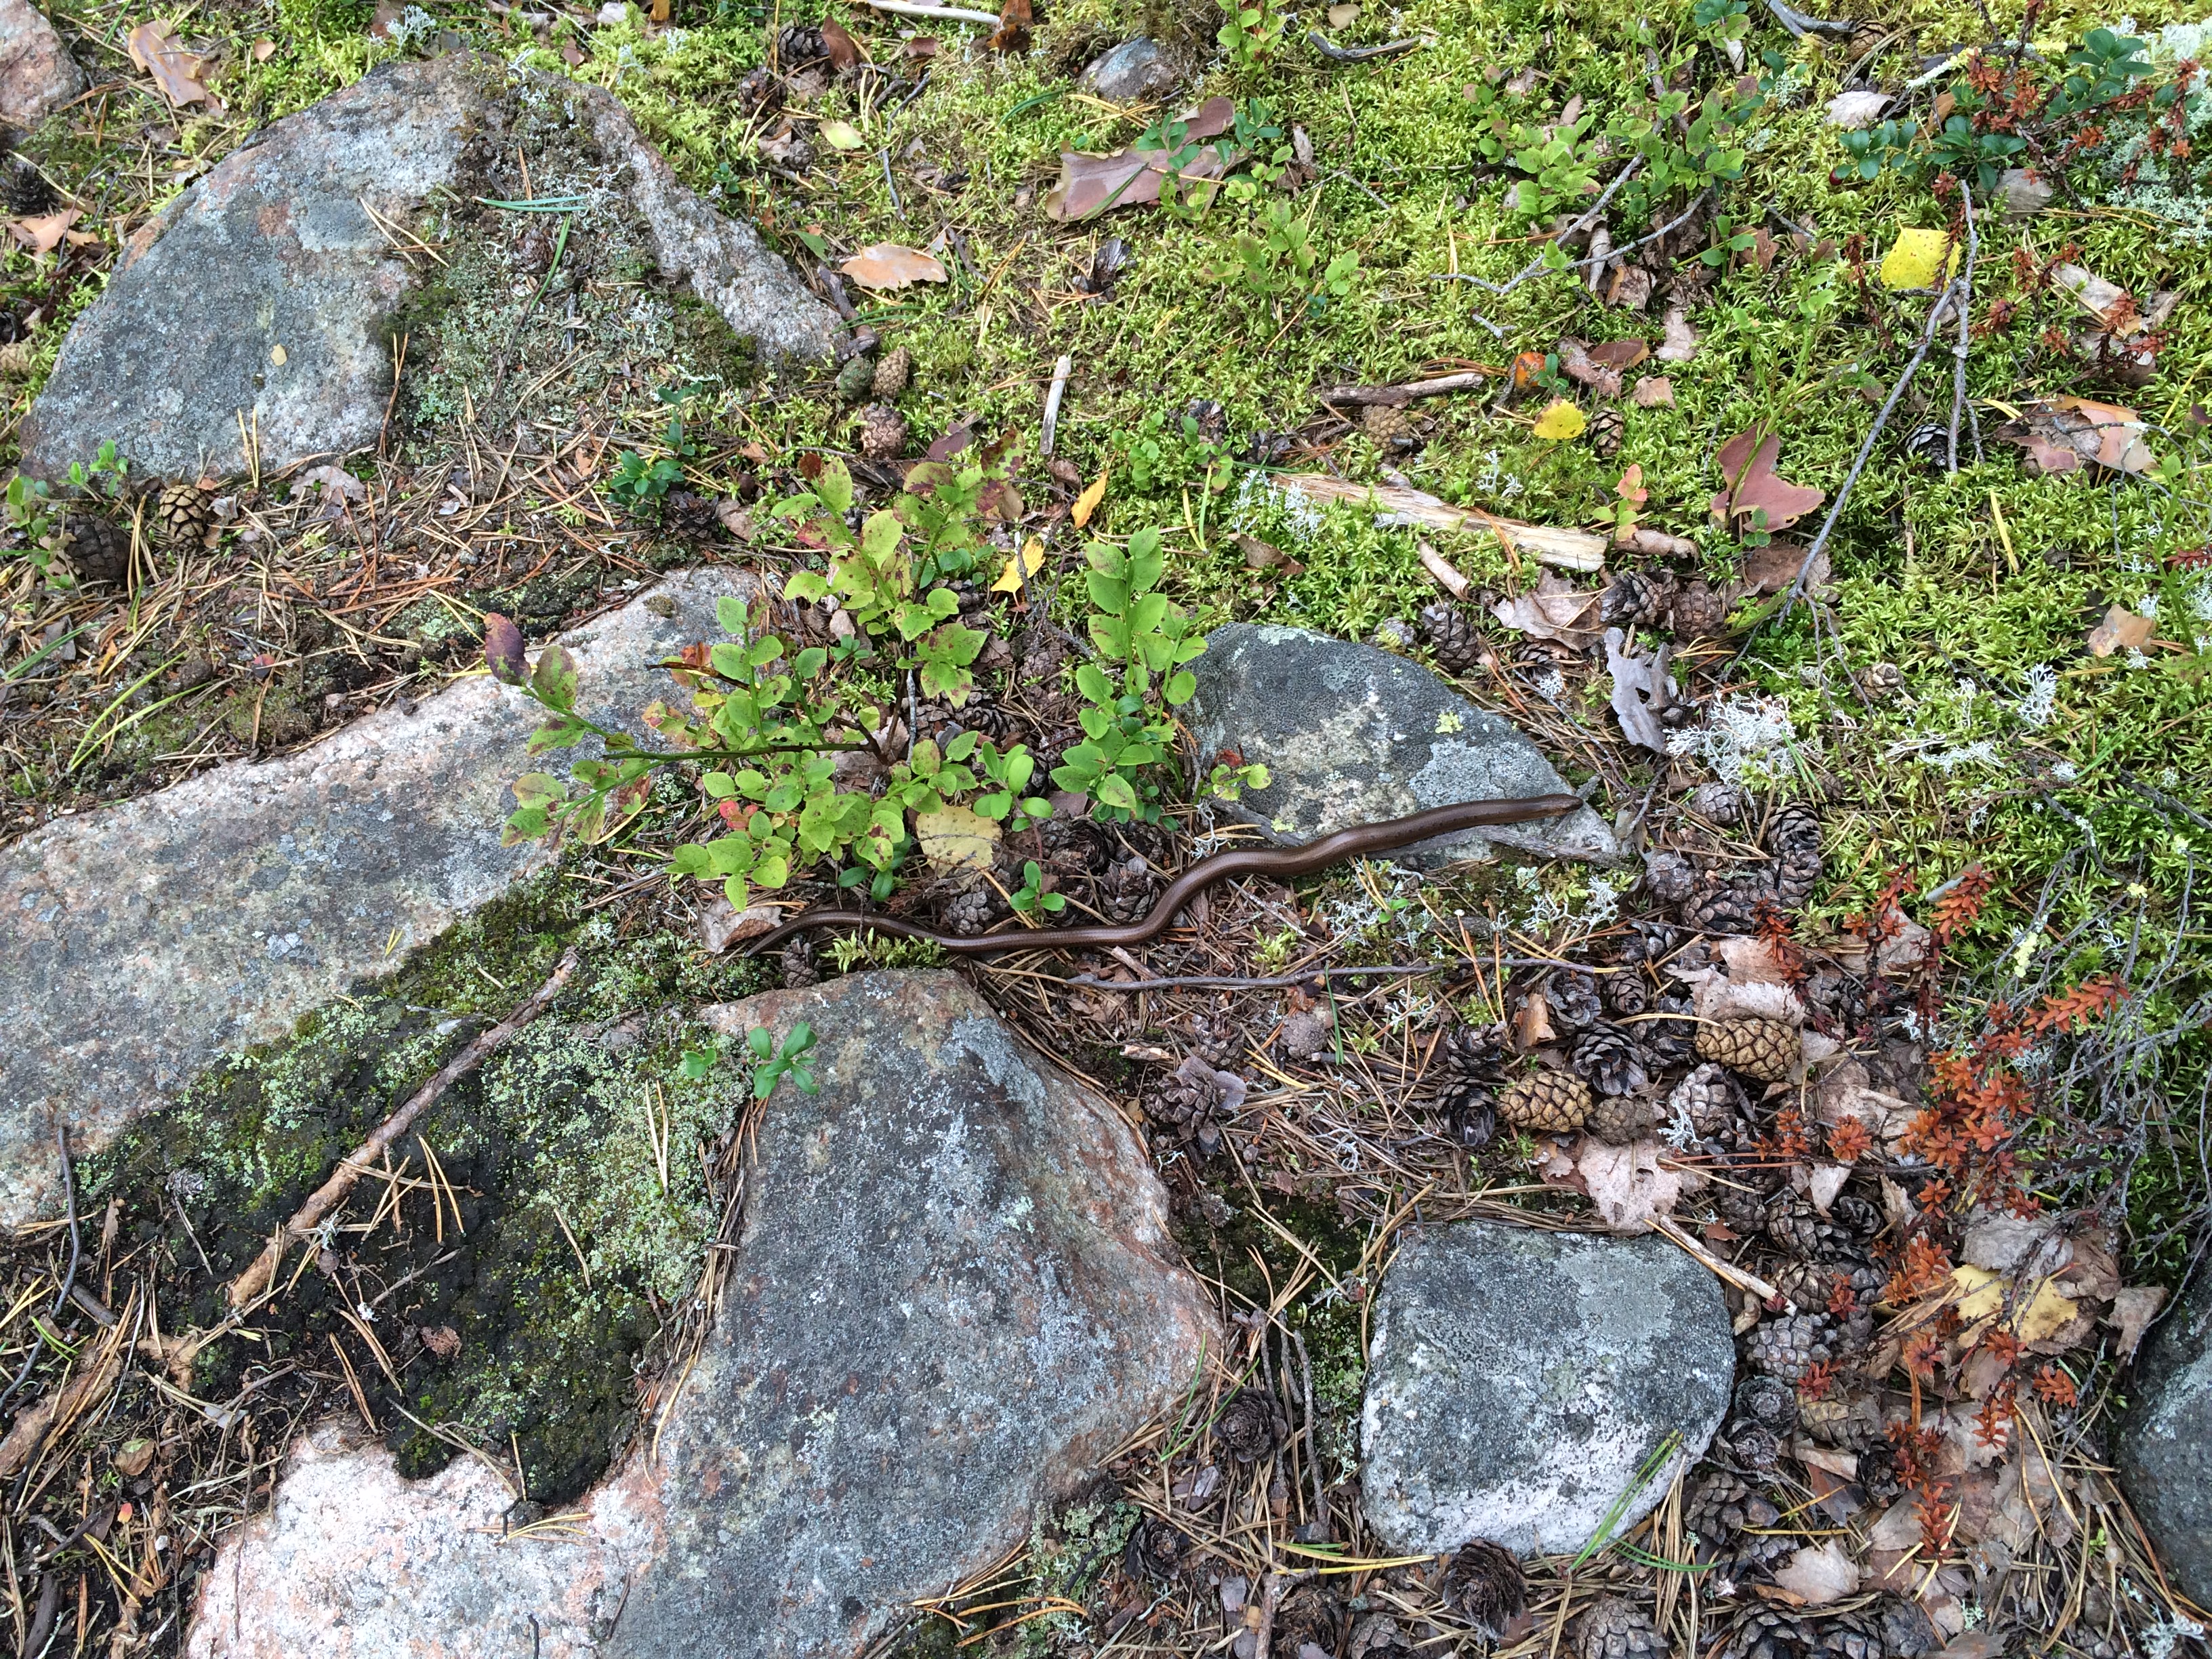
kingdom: Animalia
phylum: Chordata
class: Squamata
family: Anguidae
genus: Anguis
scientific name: Anguis colchica
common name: Slow worm
